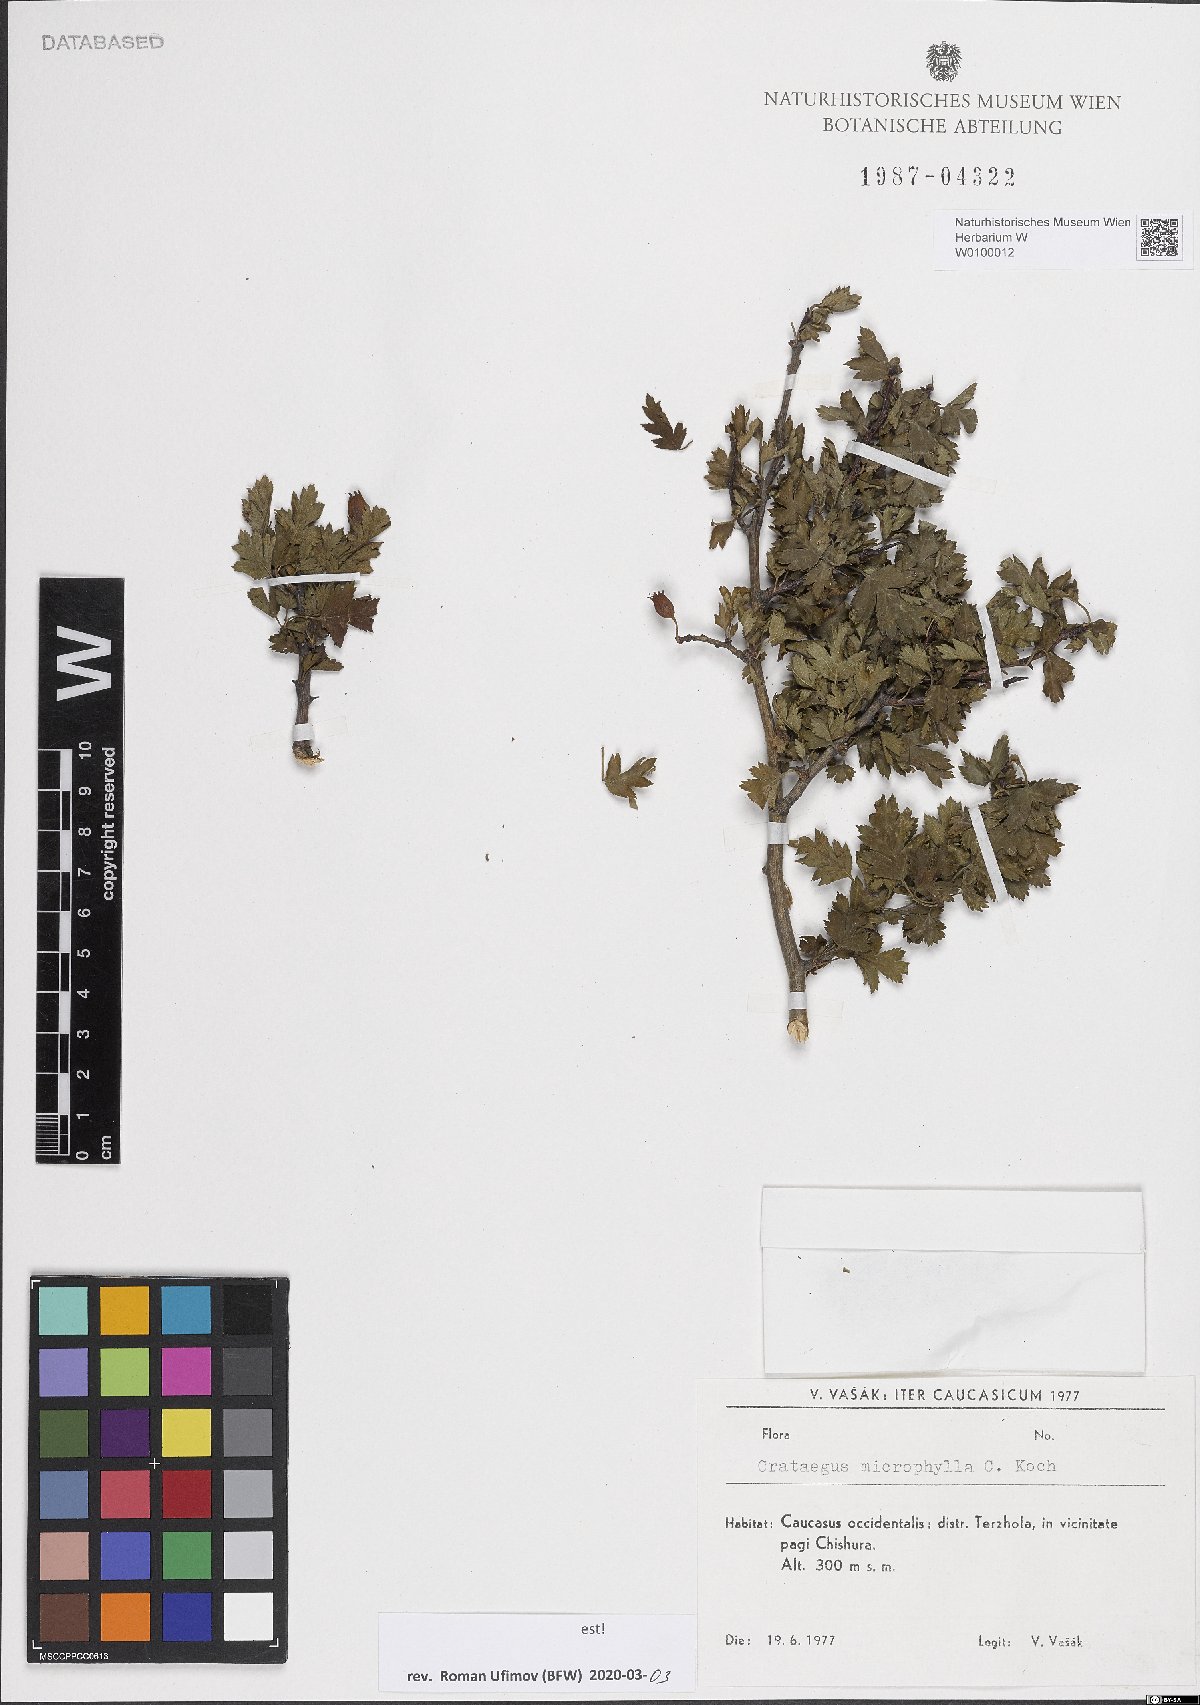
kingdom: Plantae
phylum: Tracheophyta
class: Magnoliopsida
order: Rosales
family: Rosaceae
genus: Crataegus
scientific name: Crataegus microphylla
